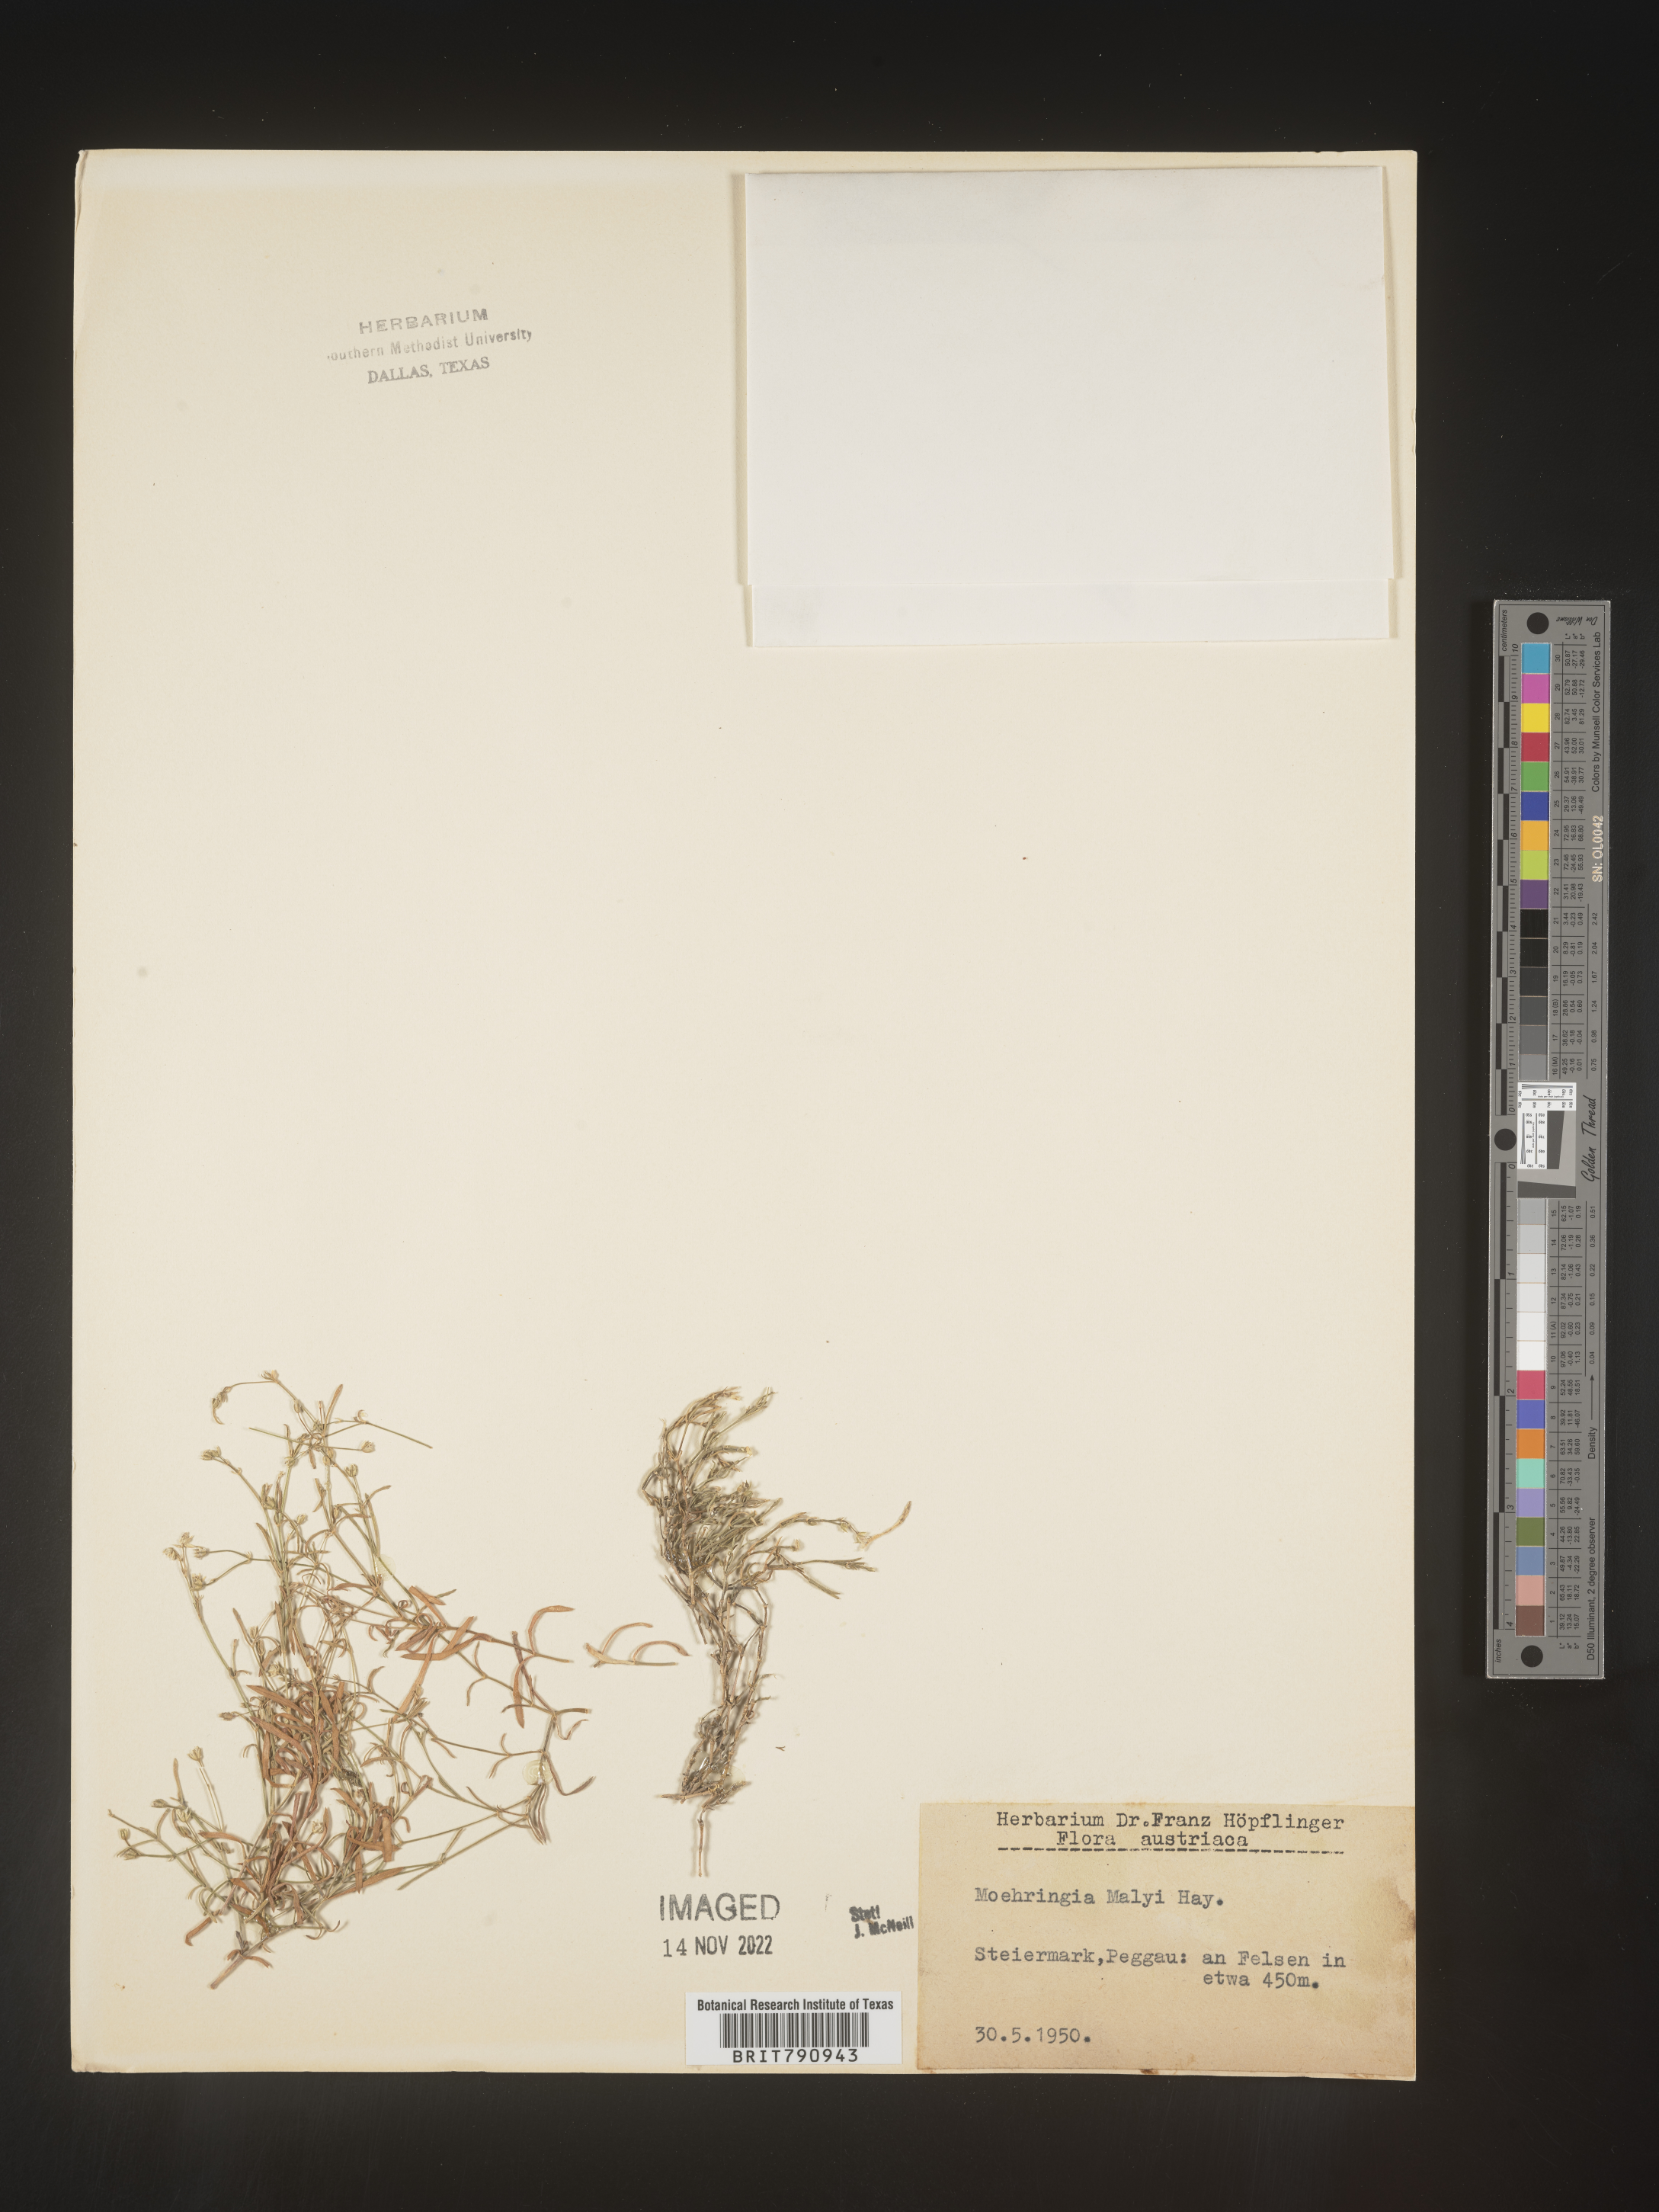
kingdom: Plantae
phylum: Tracheophyta
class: Magnoliopsida
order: Caryophyllales
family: Caryophyllaceae
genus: Moehringia
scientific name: Moehringia
